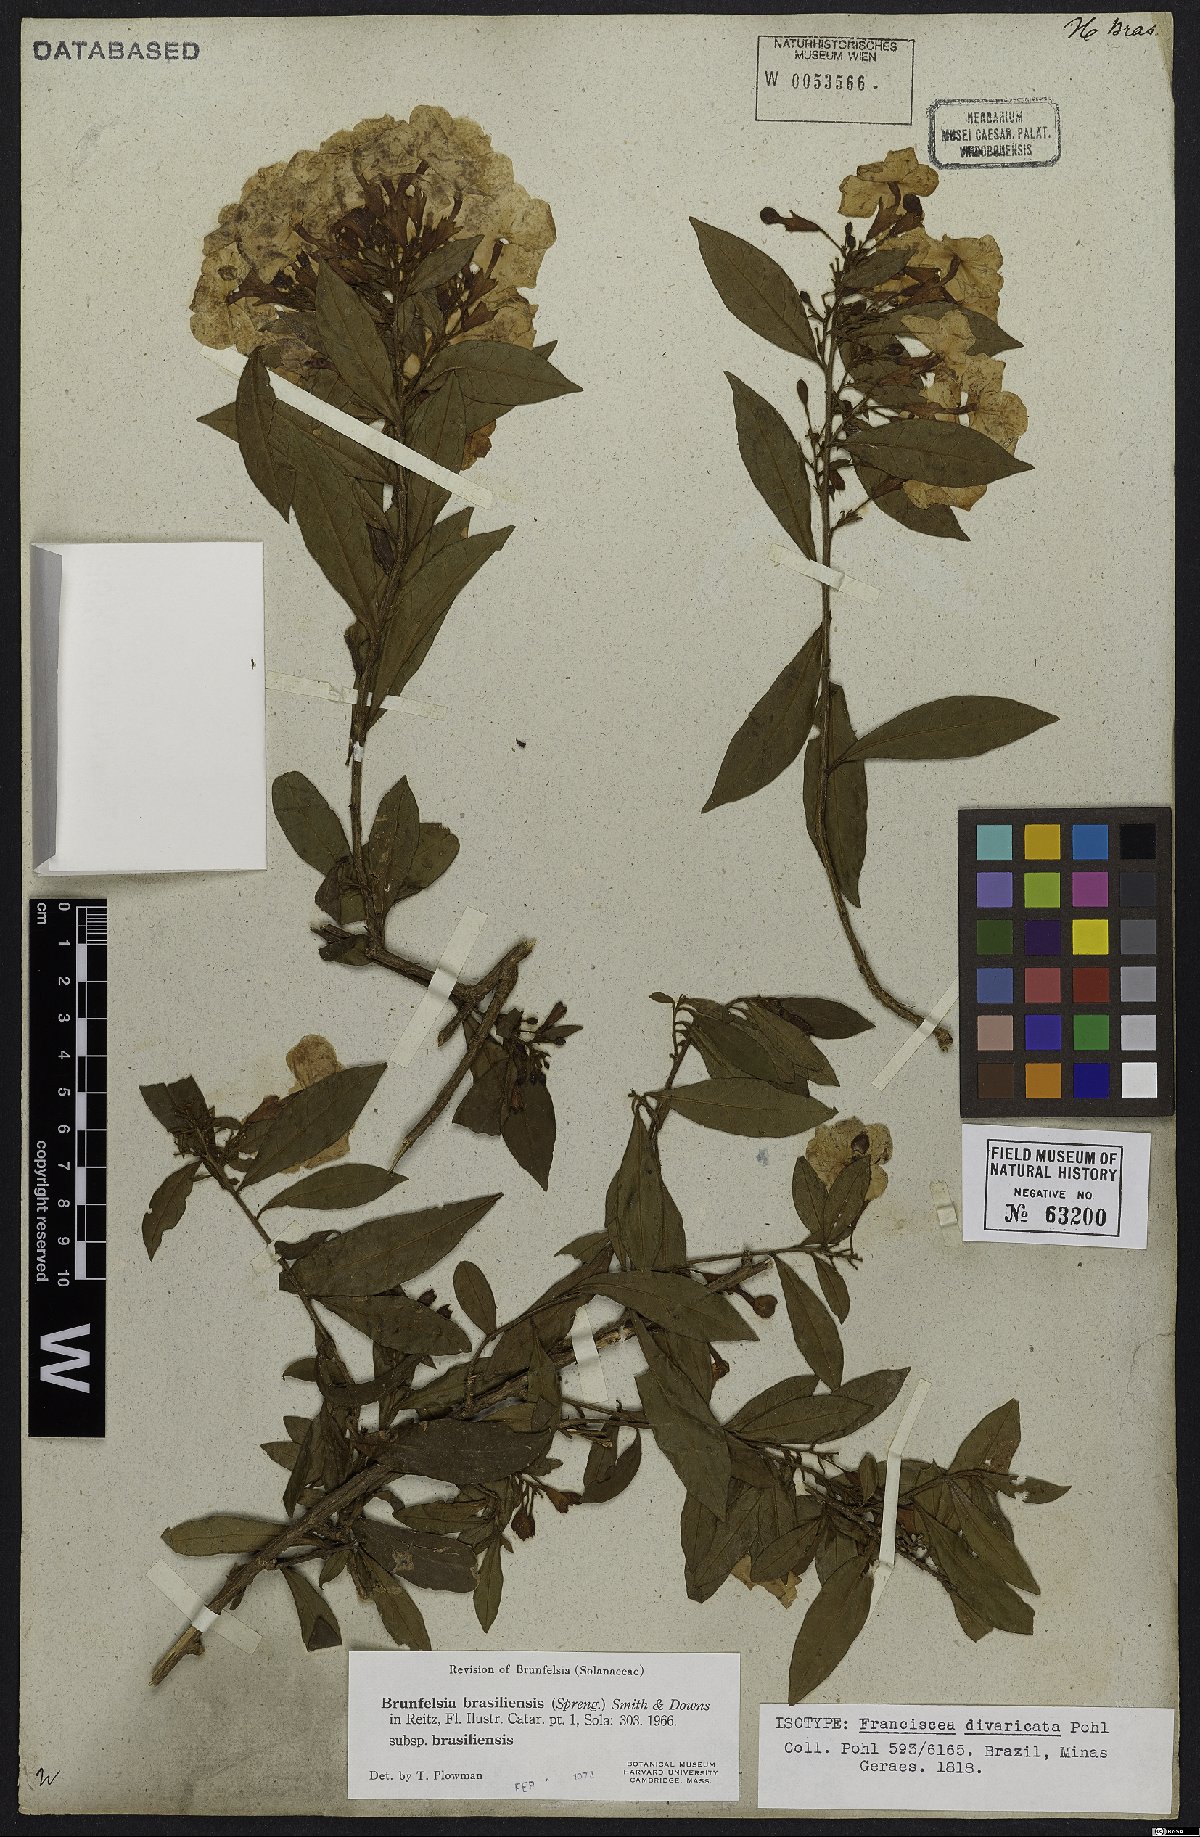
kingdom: Plantae
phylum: Tracheophyta
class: Magnoliopsida
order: Solanales
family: Solanaceae
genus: Brunfelsia
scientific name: Brunfelsia brasiliensis
